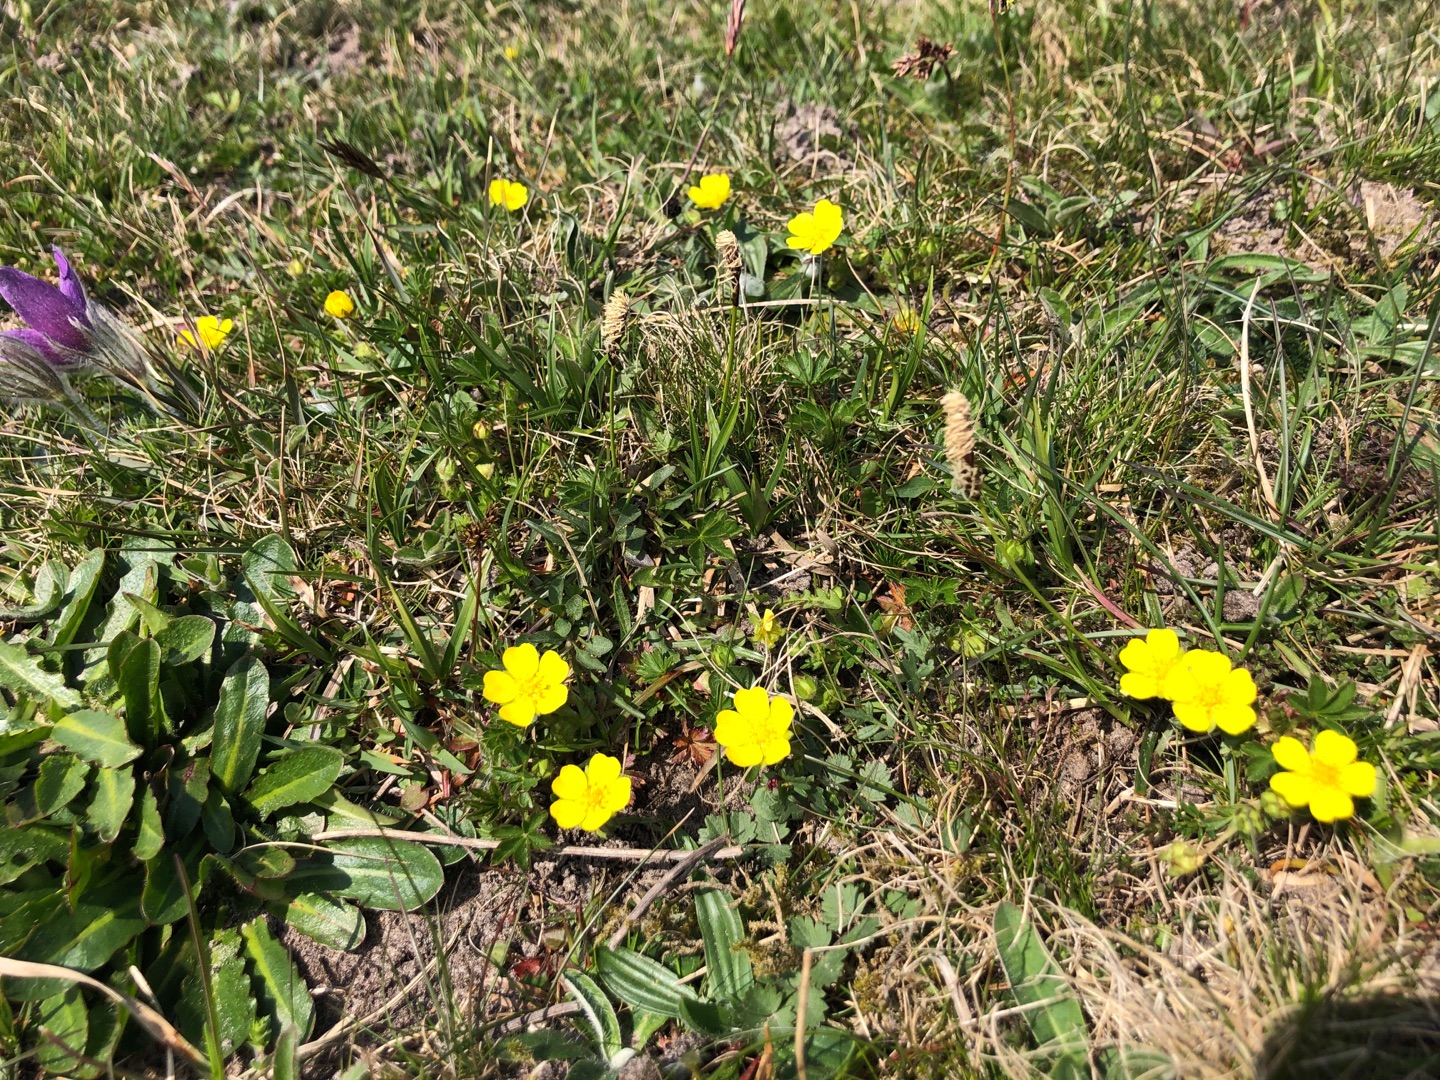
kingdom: Plantae
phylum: Tracheophyta
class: Magnoliopsida
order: Rosales
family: Rosaceae
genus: Potentilla
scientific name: Potentilla verna
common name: Vår-potentil
